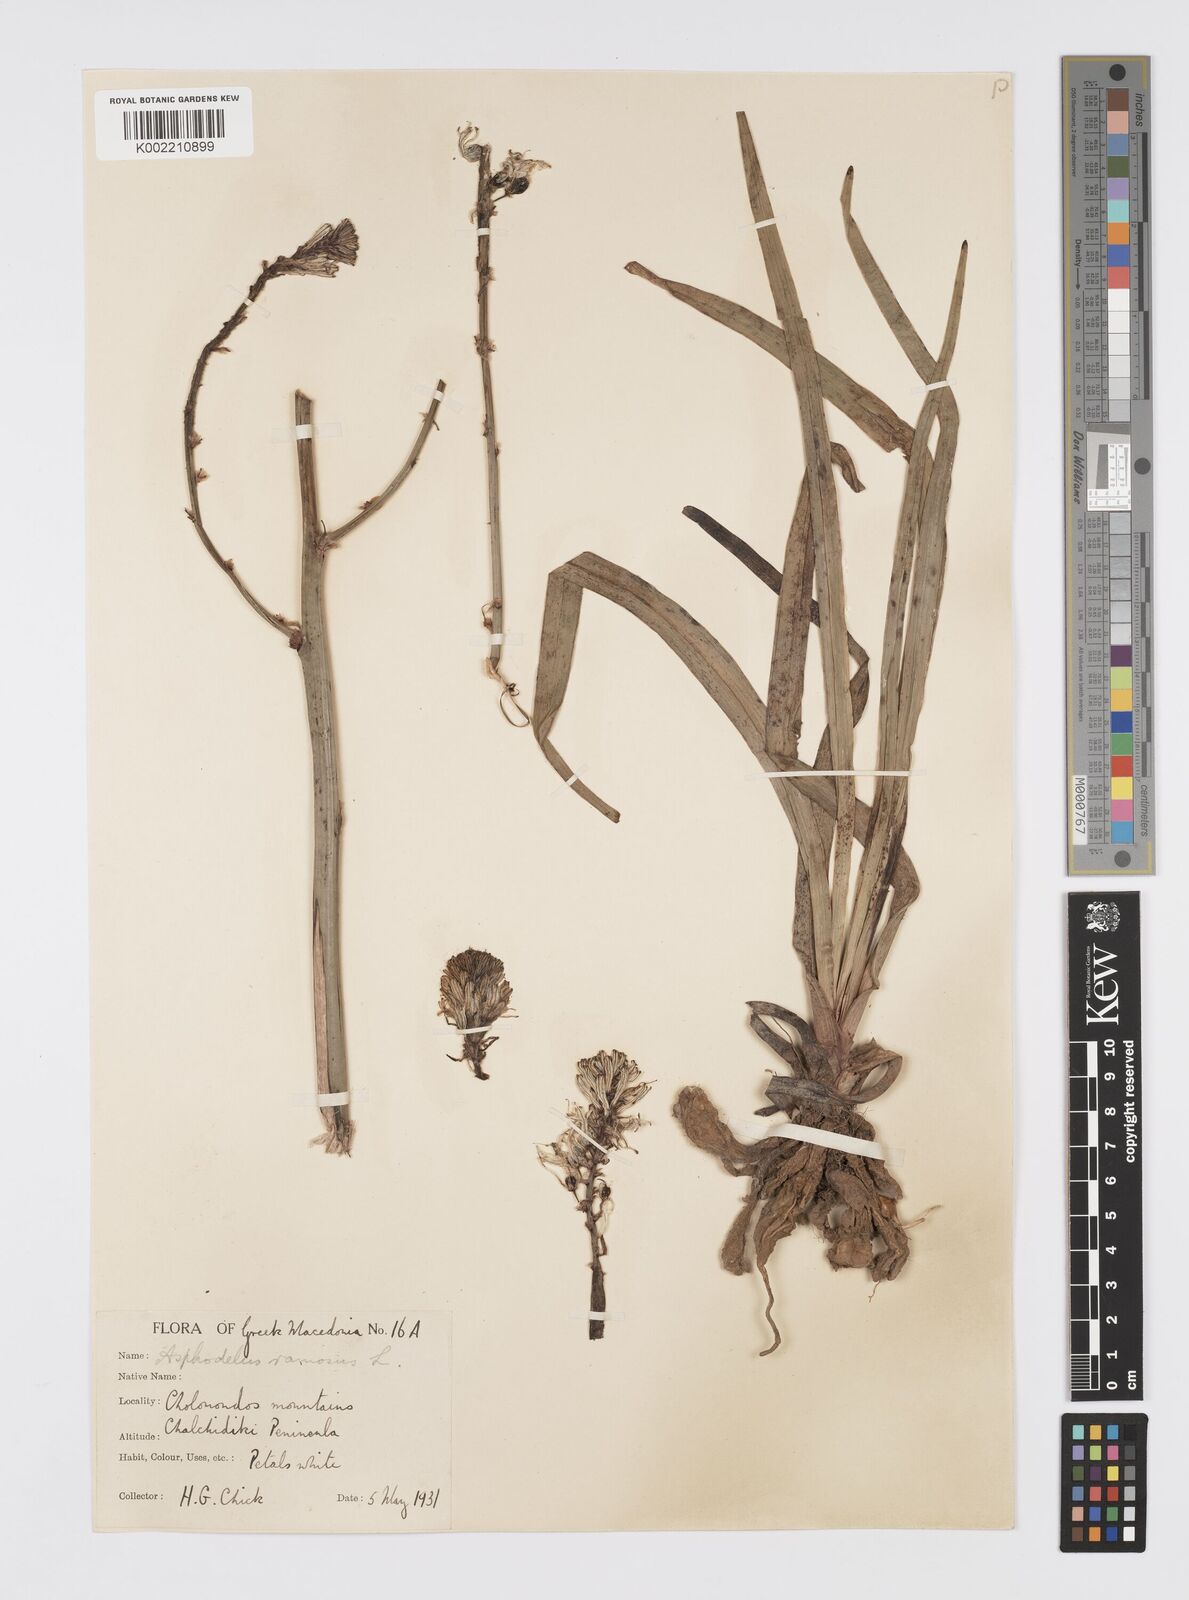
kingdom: Plantae
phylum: Tracheophyta
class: Liliopsida
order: Asparagales
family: Asphodelaceae
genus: Asphodelus
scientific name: Asphodelus ramosus
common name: Silverrod
